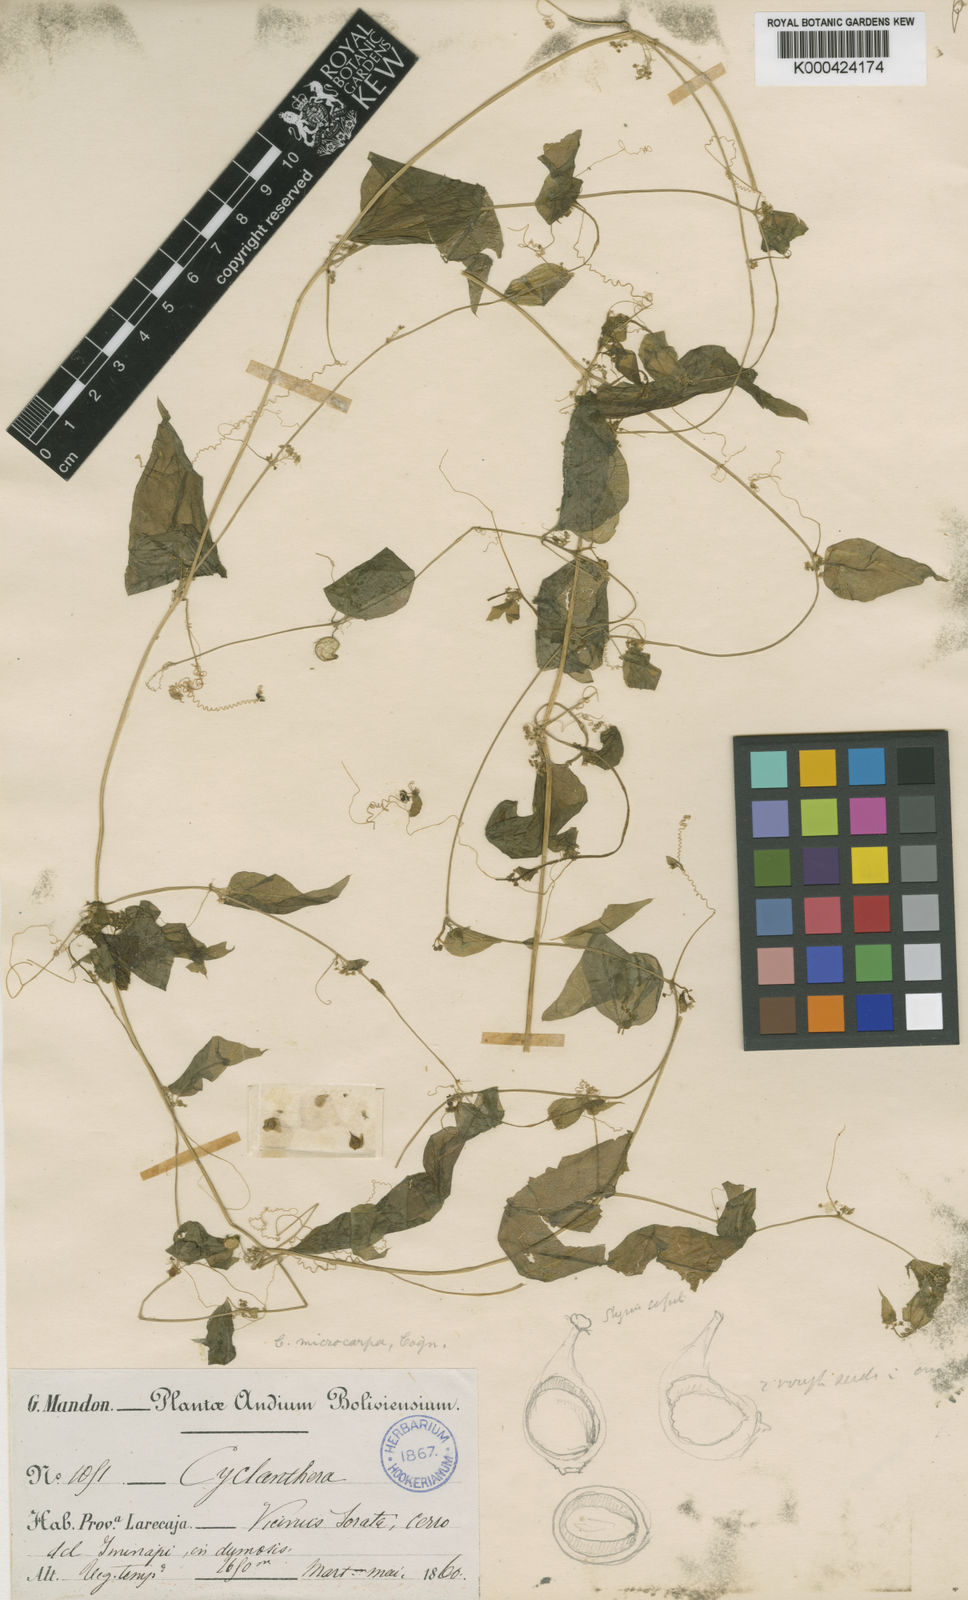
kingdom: Plantae
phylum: Tracheophyta
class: Magnoliopsida
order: Cucurbitales
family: Cucurbitaceae
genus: Cyclanthera
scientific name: Cyclanthera tamnifolia
